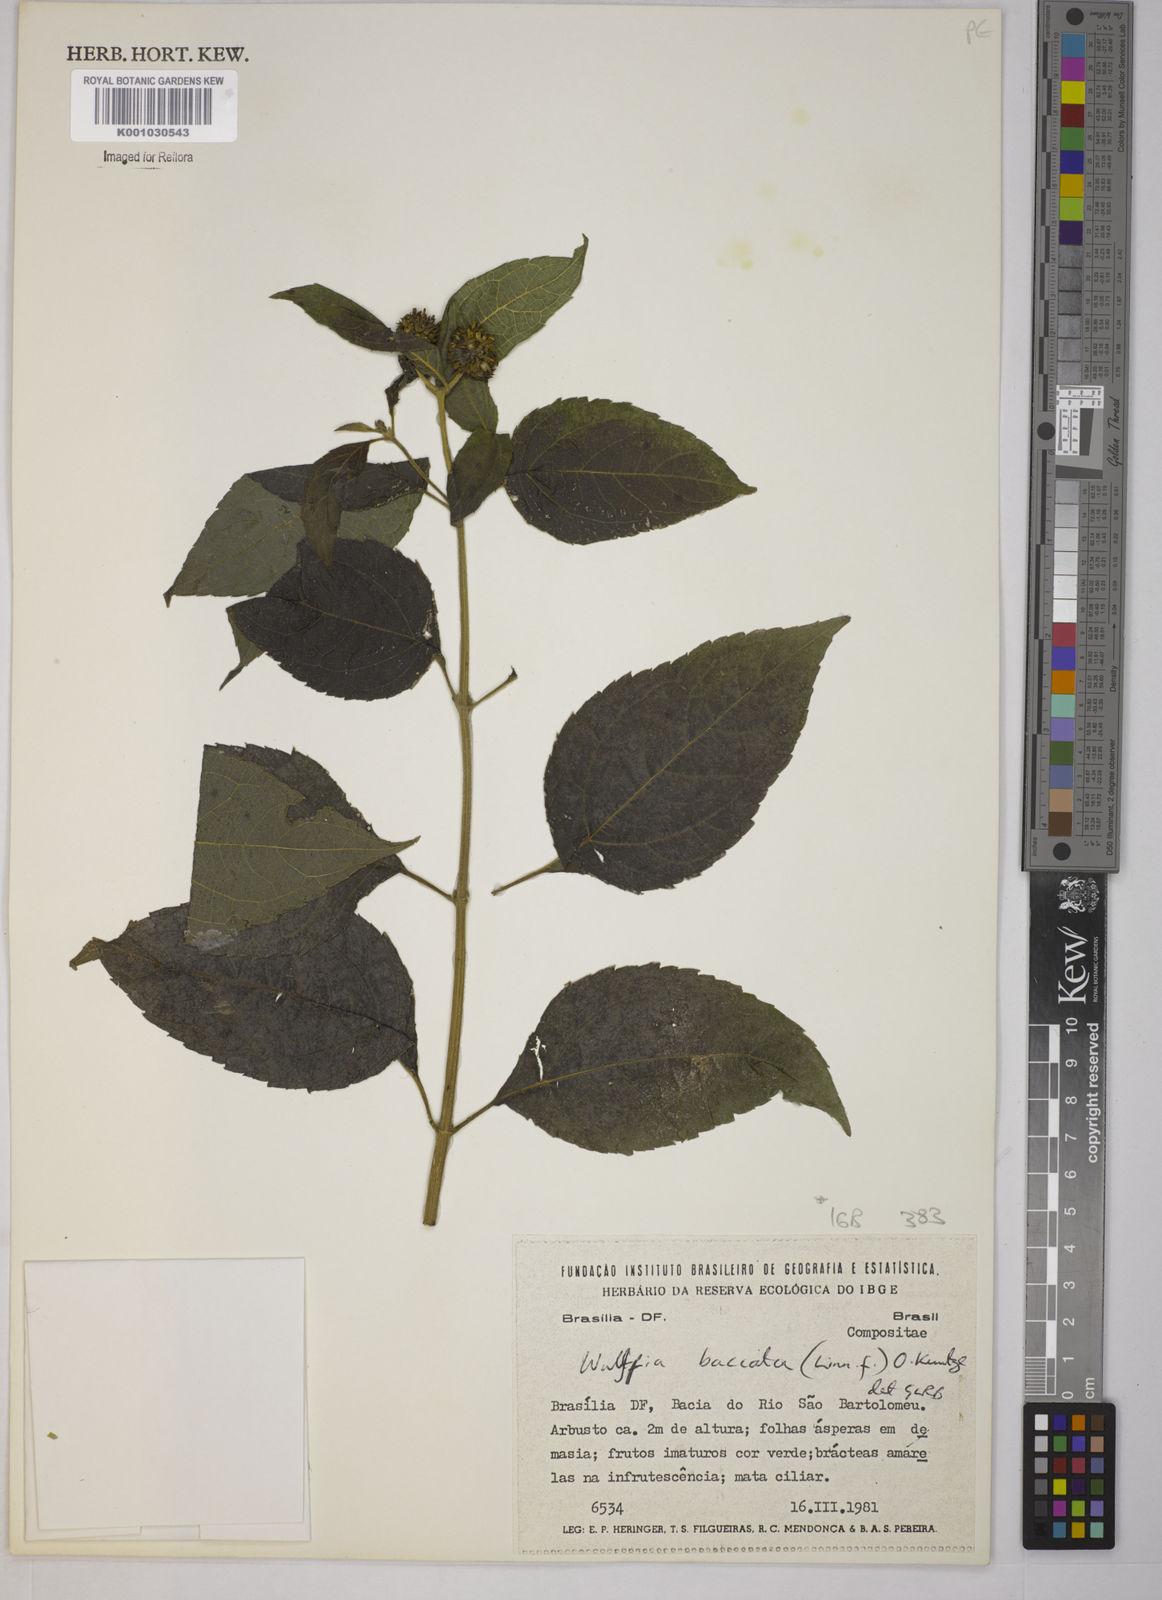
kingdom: Plantae
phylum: Tracheophyta
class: Magnoliopsida
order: Asterales
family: Asteraceae
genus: Tilesia
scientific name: Tilesia baccata
